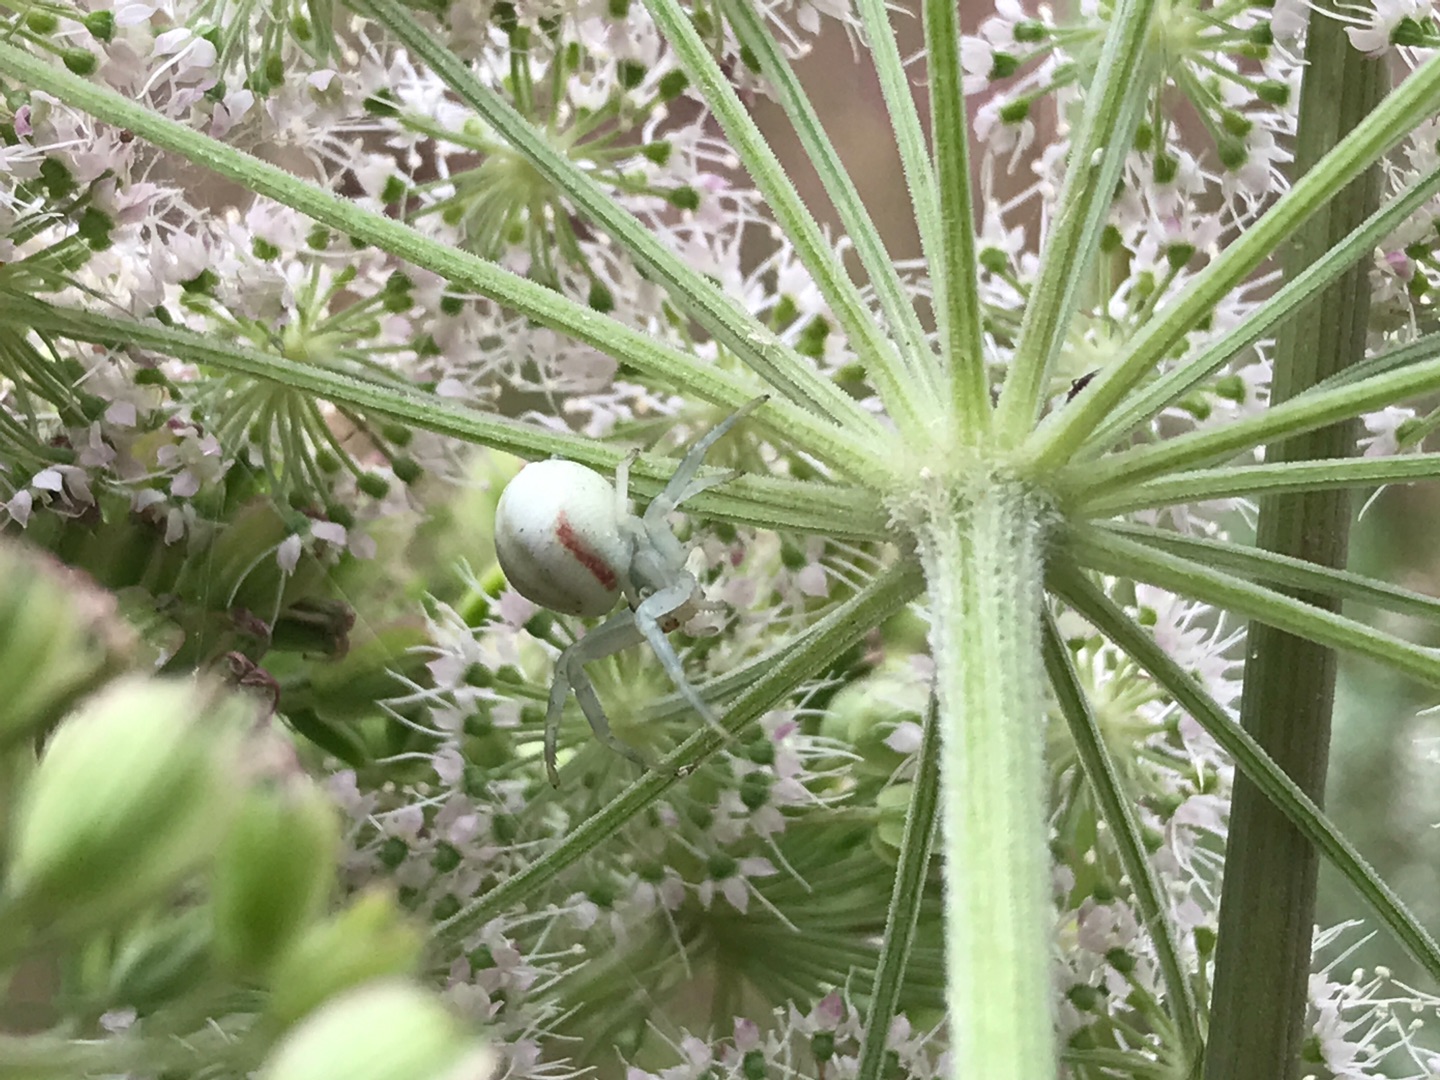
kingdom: Animalia
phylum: Arthropoda
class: Arachnida
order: Araneae
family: Thomisidae
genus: Misumena
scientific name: Misumena vatia
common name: Kamæleonedderkop
